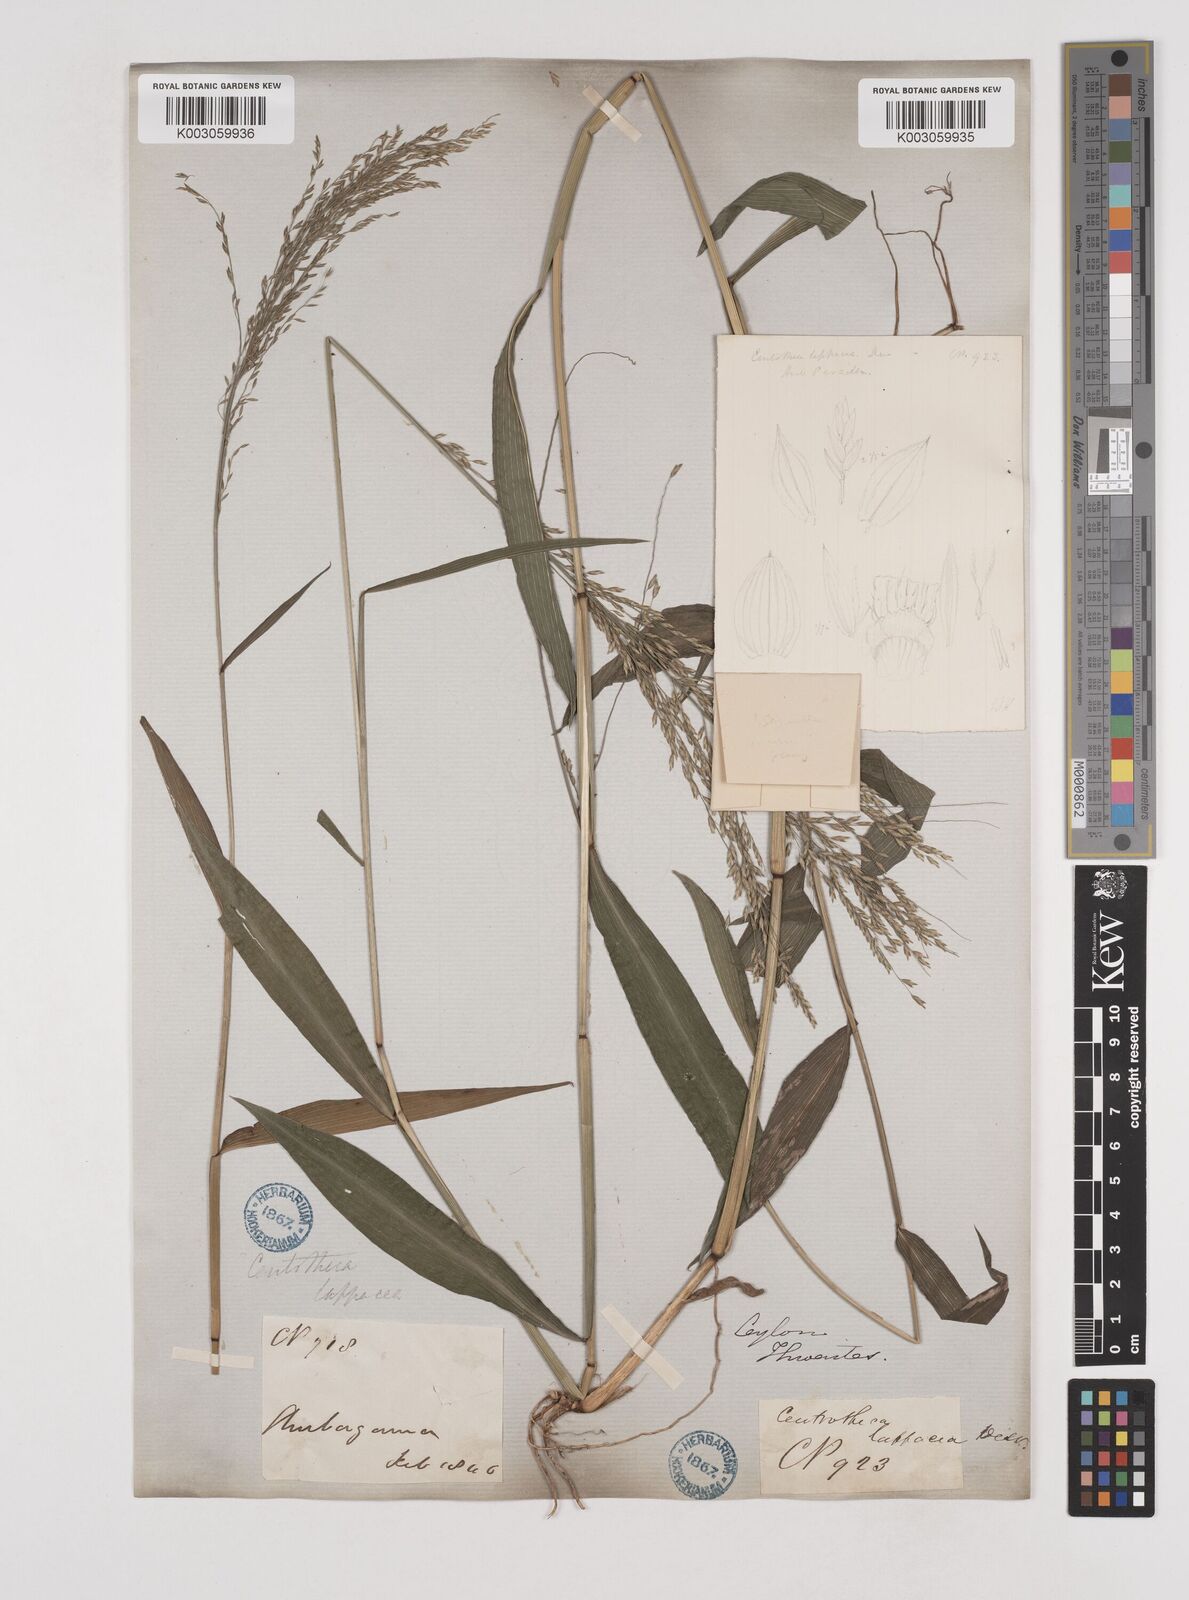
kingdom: Plantae
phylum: Tracheophyta
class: Liliopsida
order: Poales
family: Poaceae
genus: Centotheca
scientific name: Centotheca lappacea
